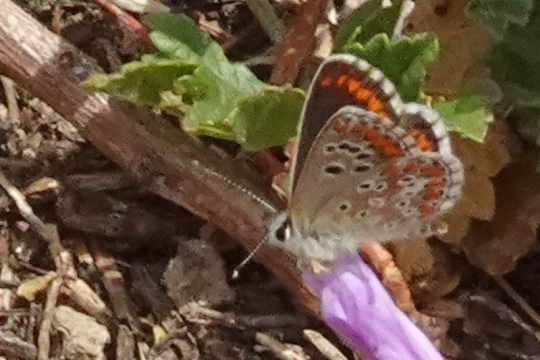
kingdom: Animalia
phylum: Arthropoda
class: Insecta
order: Lepidoptera
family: Lycaenidae
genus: Aricia
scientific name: Aricia cramera
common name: Southern Brown Argus
